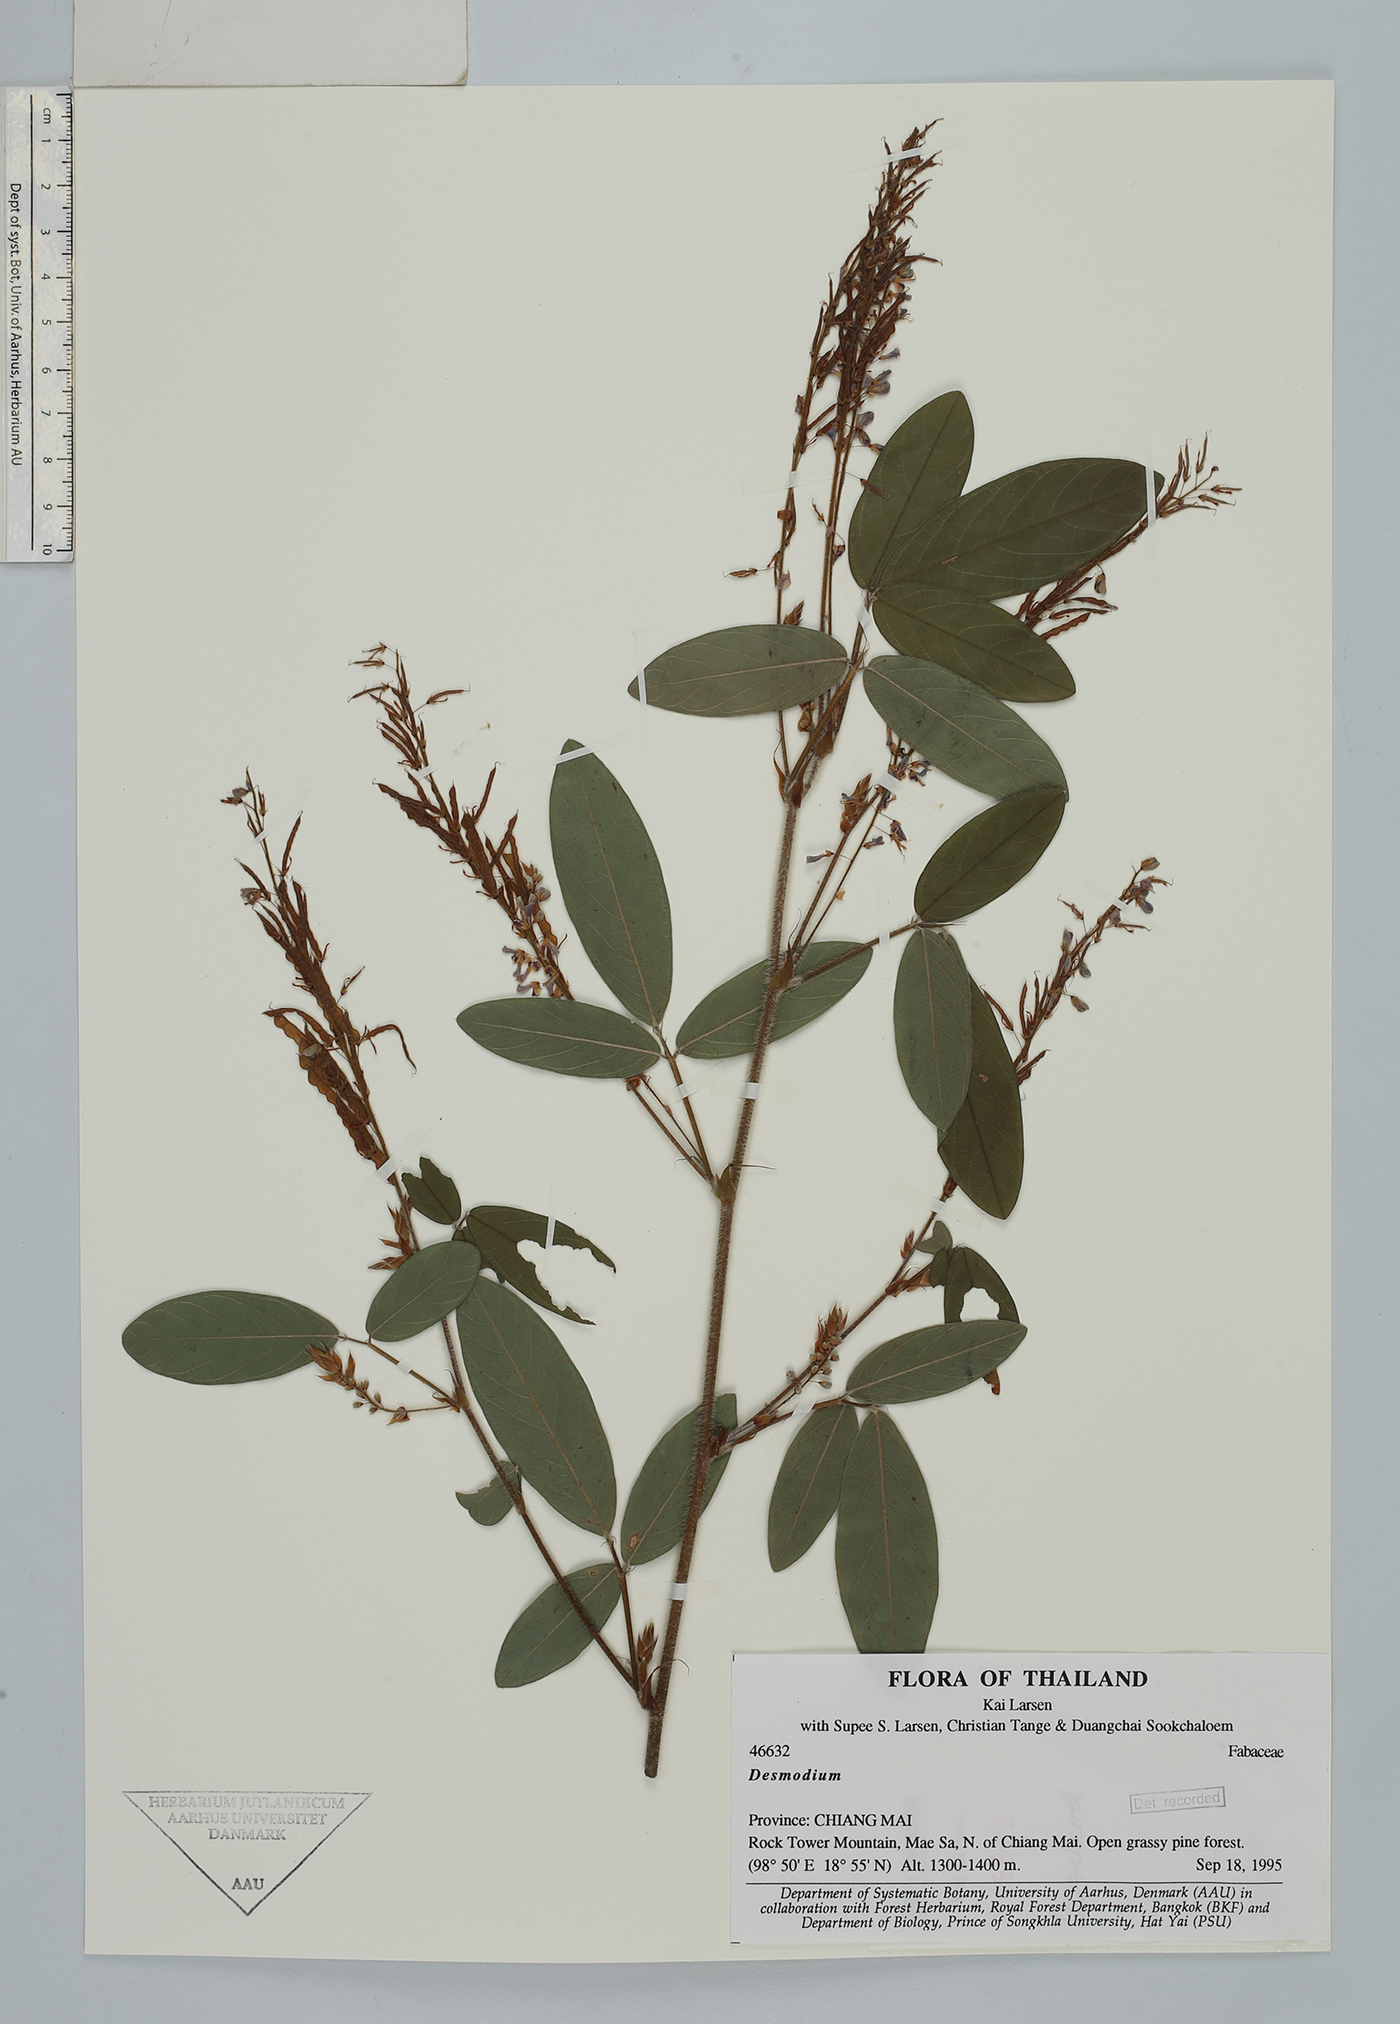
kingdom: Plantae
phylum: Tracheophyta
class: Magnoliopsida
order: Fabales
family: Fabaceae
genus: Grona
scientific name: Grona heterocarpos
